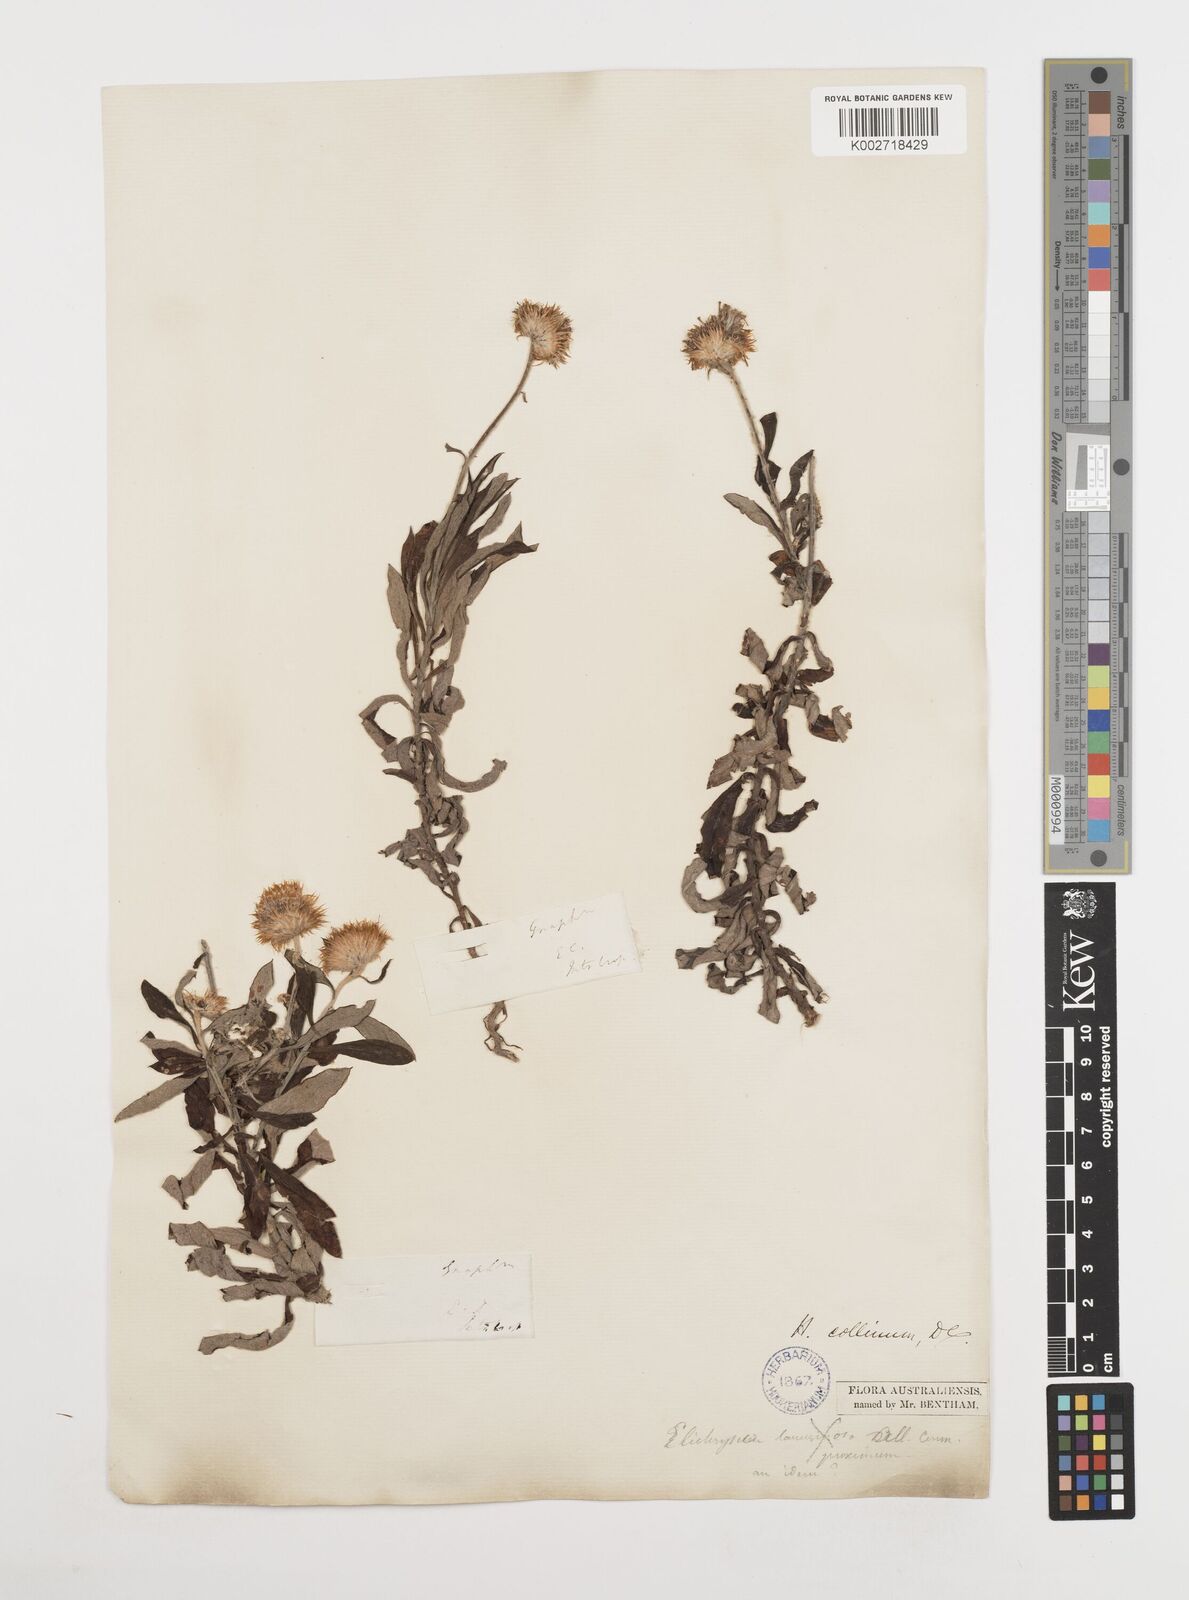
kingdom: Plantae
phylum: Tracheophyta
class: Magnoliopsida
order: Asterales
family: Asteraceae
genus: Coronidium
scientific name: Coronidium rupicola
